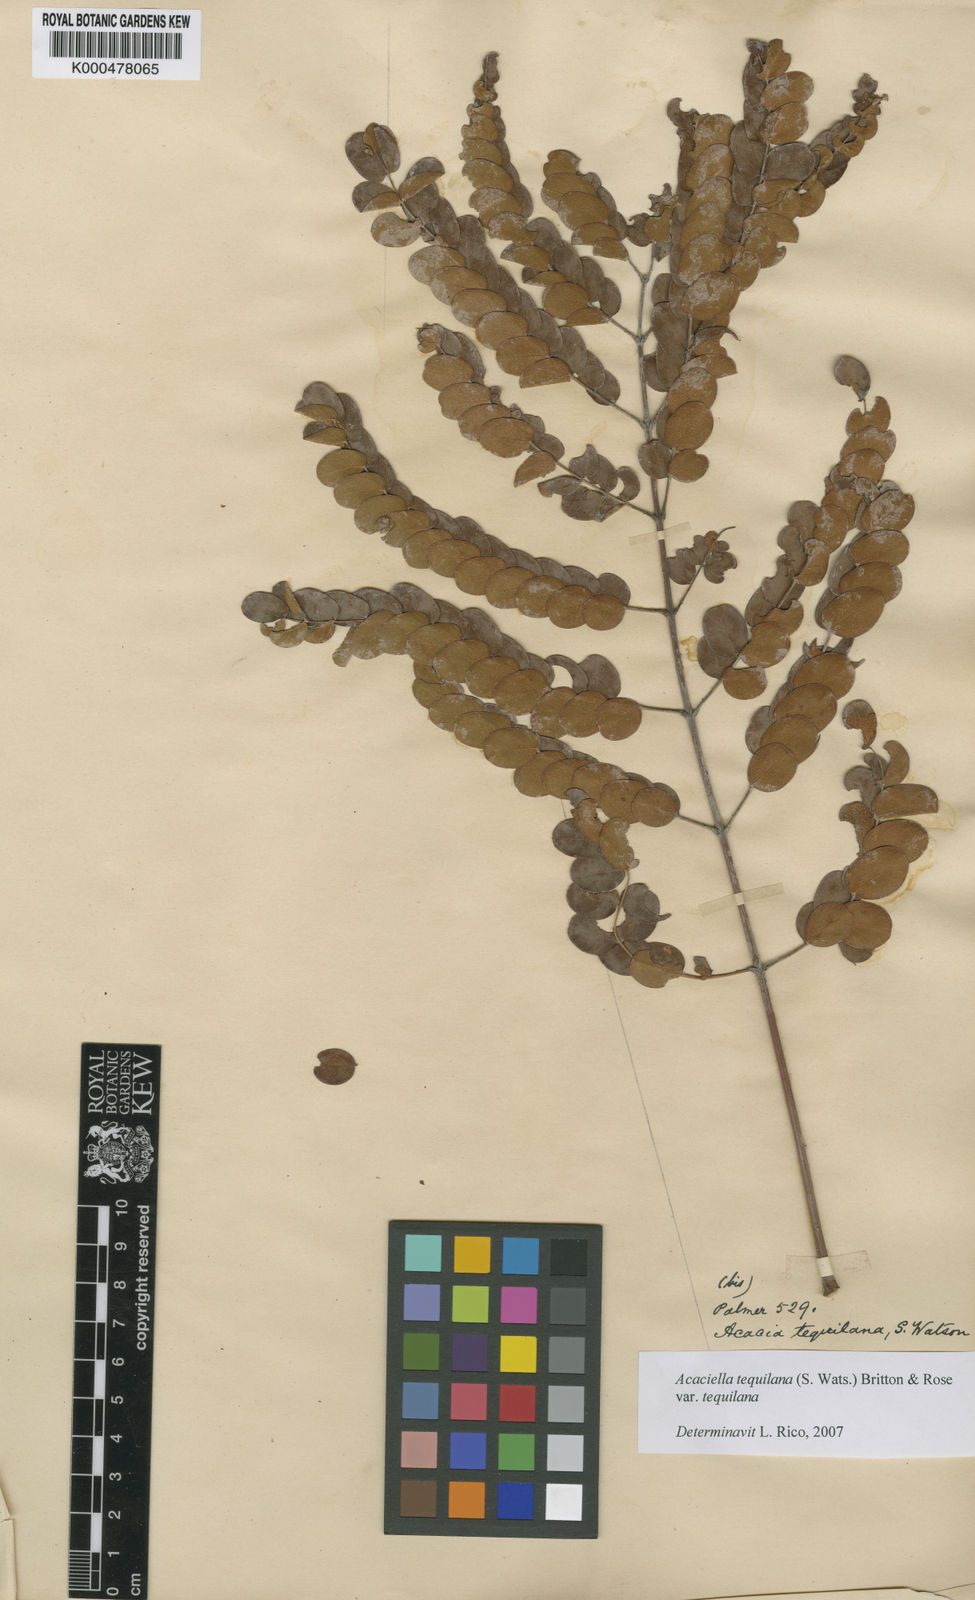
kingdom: Plantae
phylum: Tracheophyta
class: Magnoliopsida
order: Fabales
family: Fabaceae
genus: Acaciella
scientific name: Acaciella
